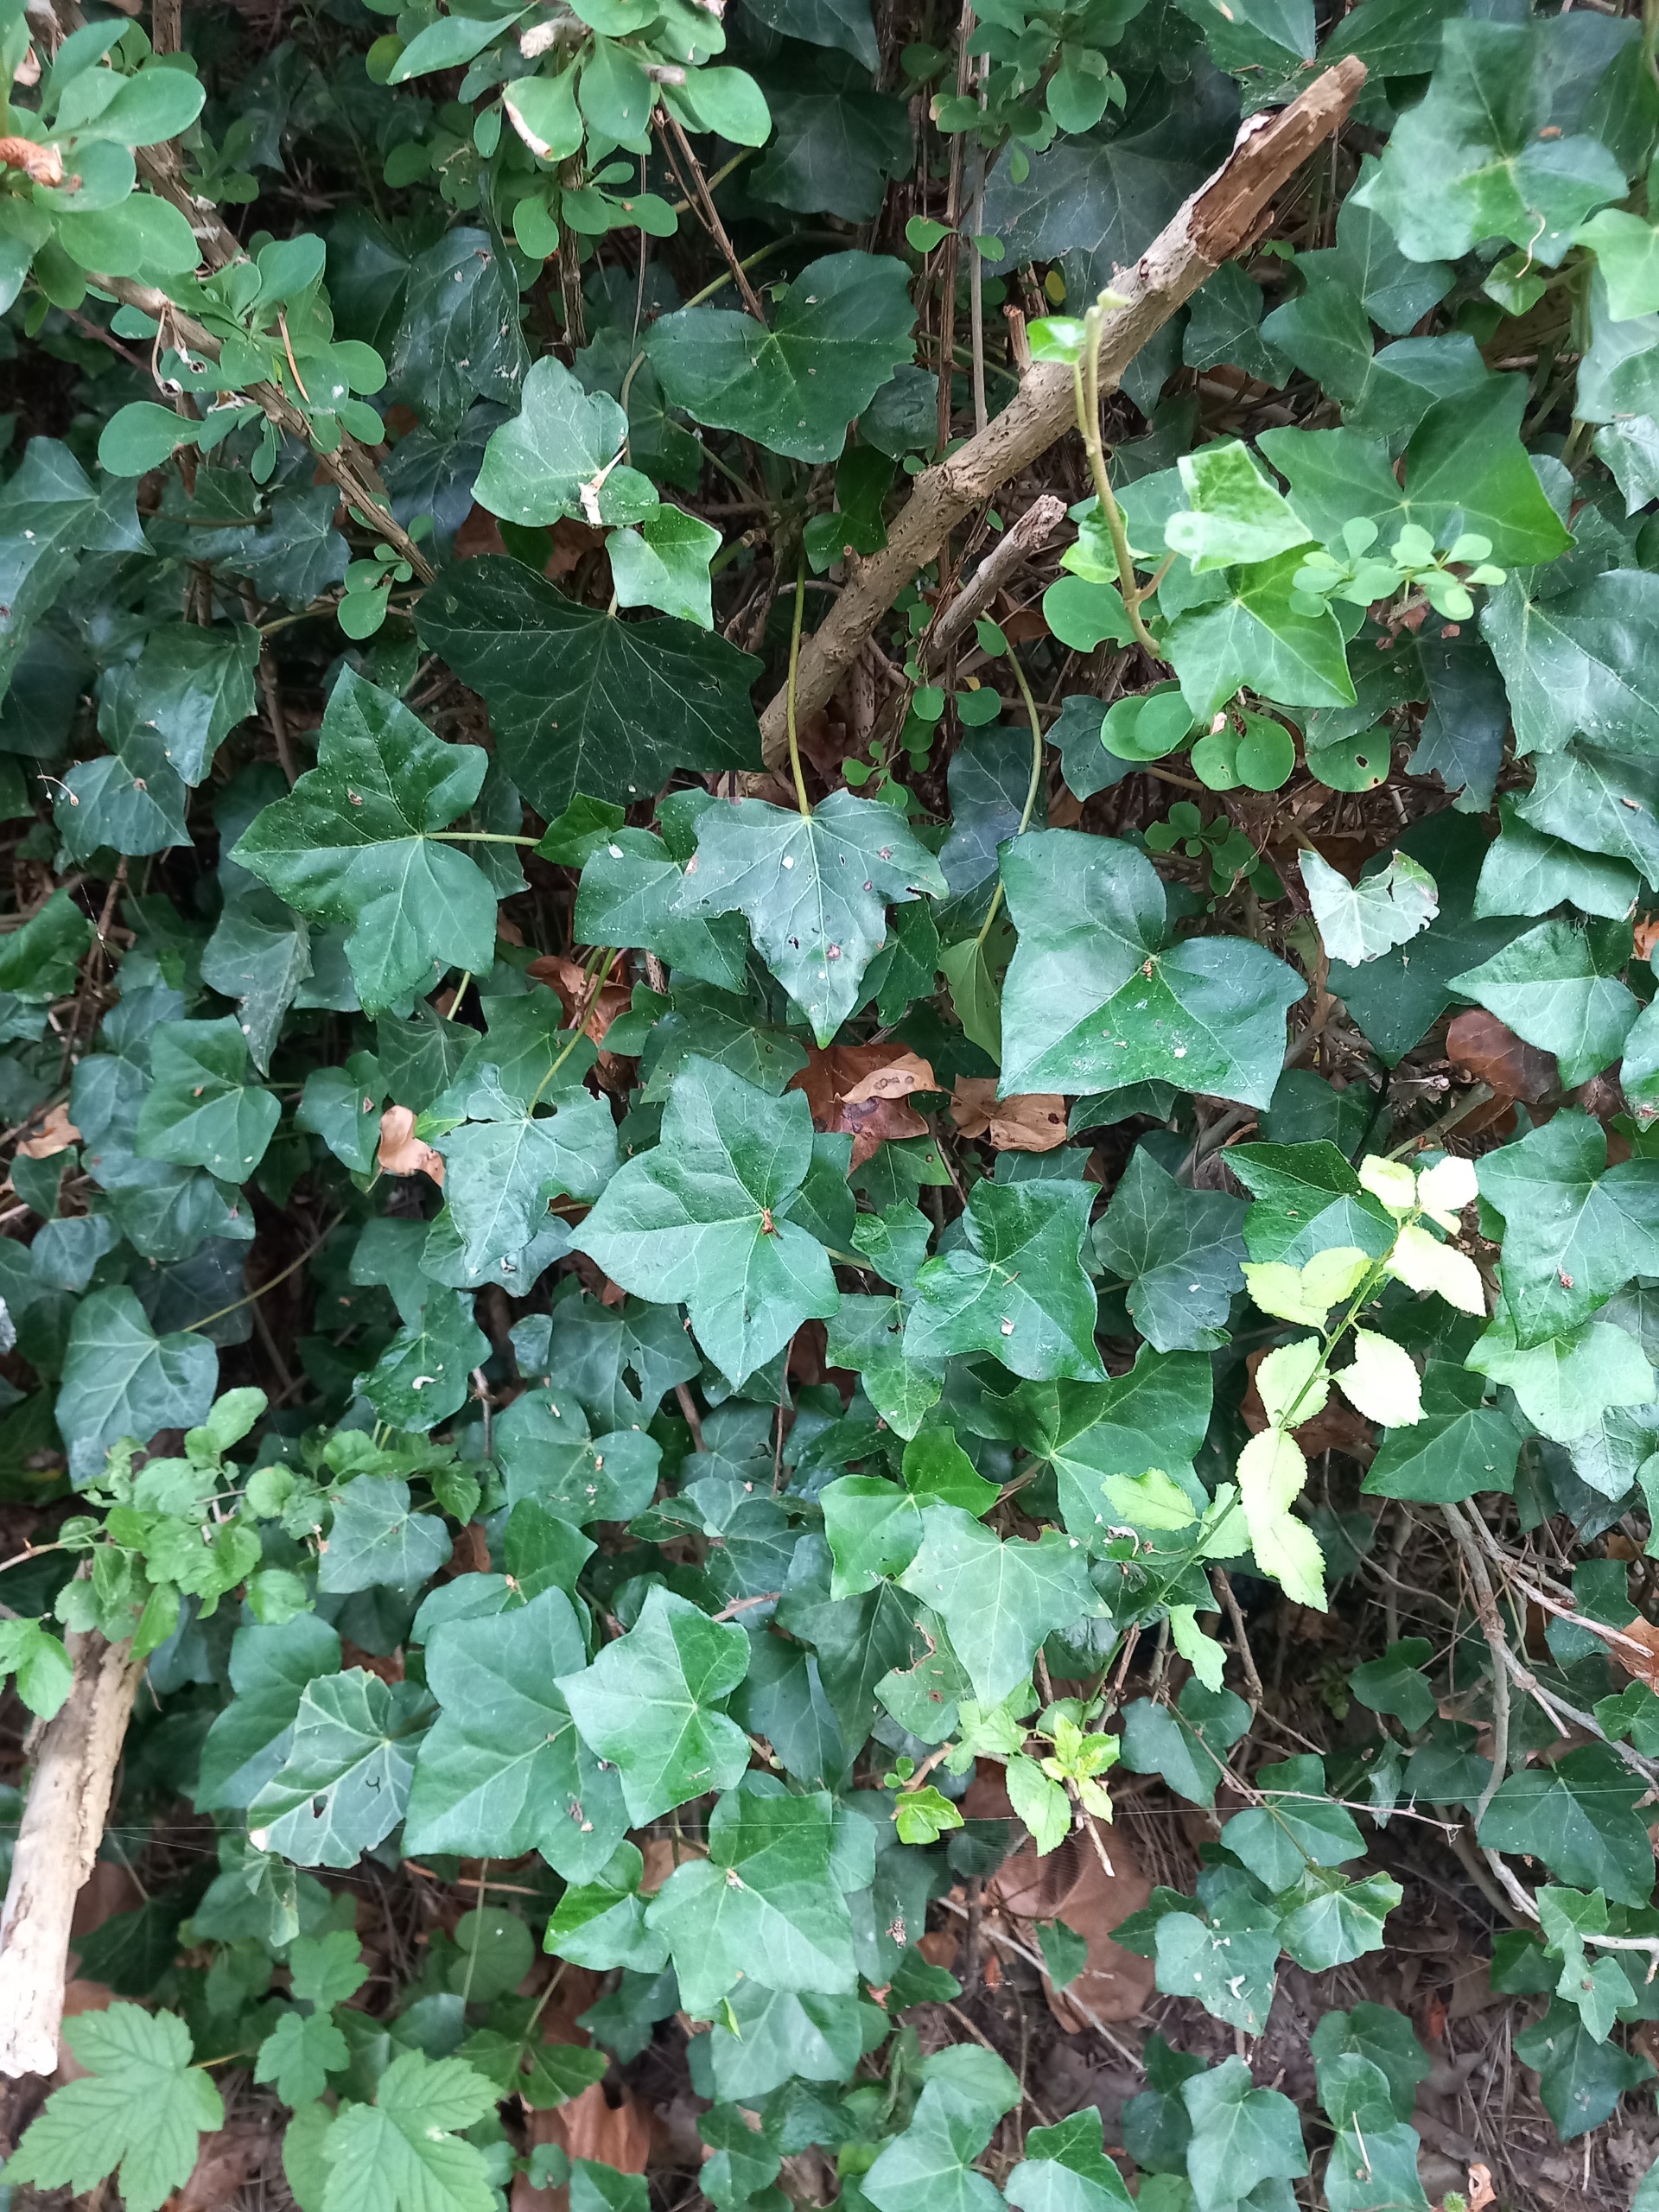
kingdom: Plantae
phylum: Tracheophyta
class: Magnoliopsida
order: Apiales
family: Araliaceae
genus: Hedera
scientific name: Hedera hibernica
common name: Irsk vedbend
